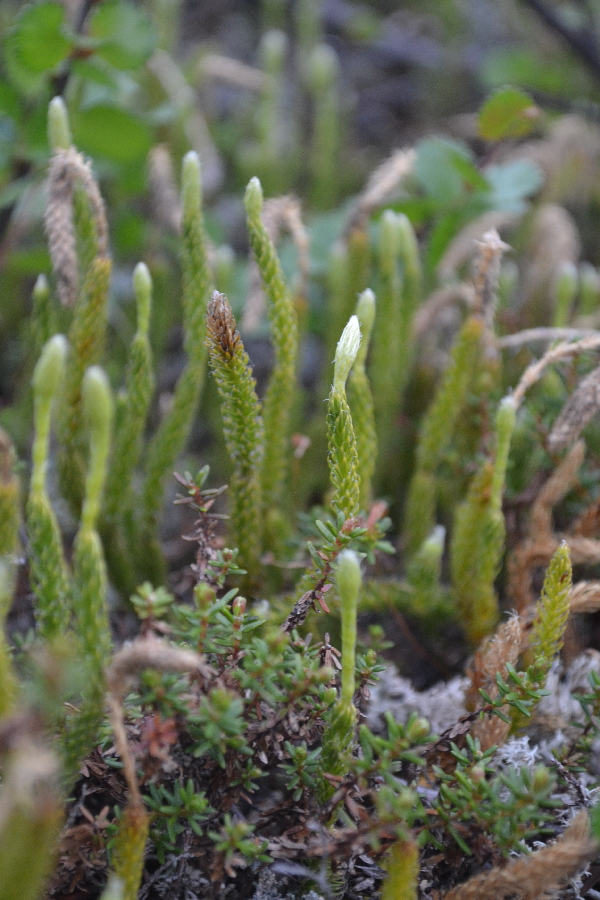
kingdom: Plantae
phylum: Tracheophyta
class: Lycopodiopsida
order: Lycopodiales
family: Lycopodiaceae
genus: Lycopodium
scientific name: Lycopodium lagopus
